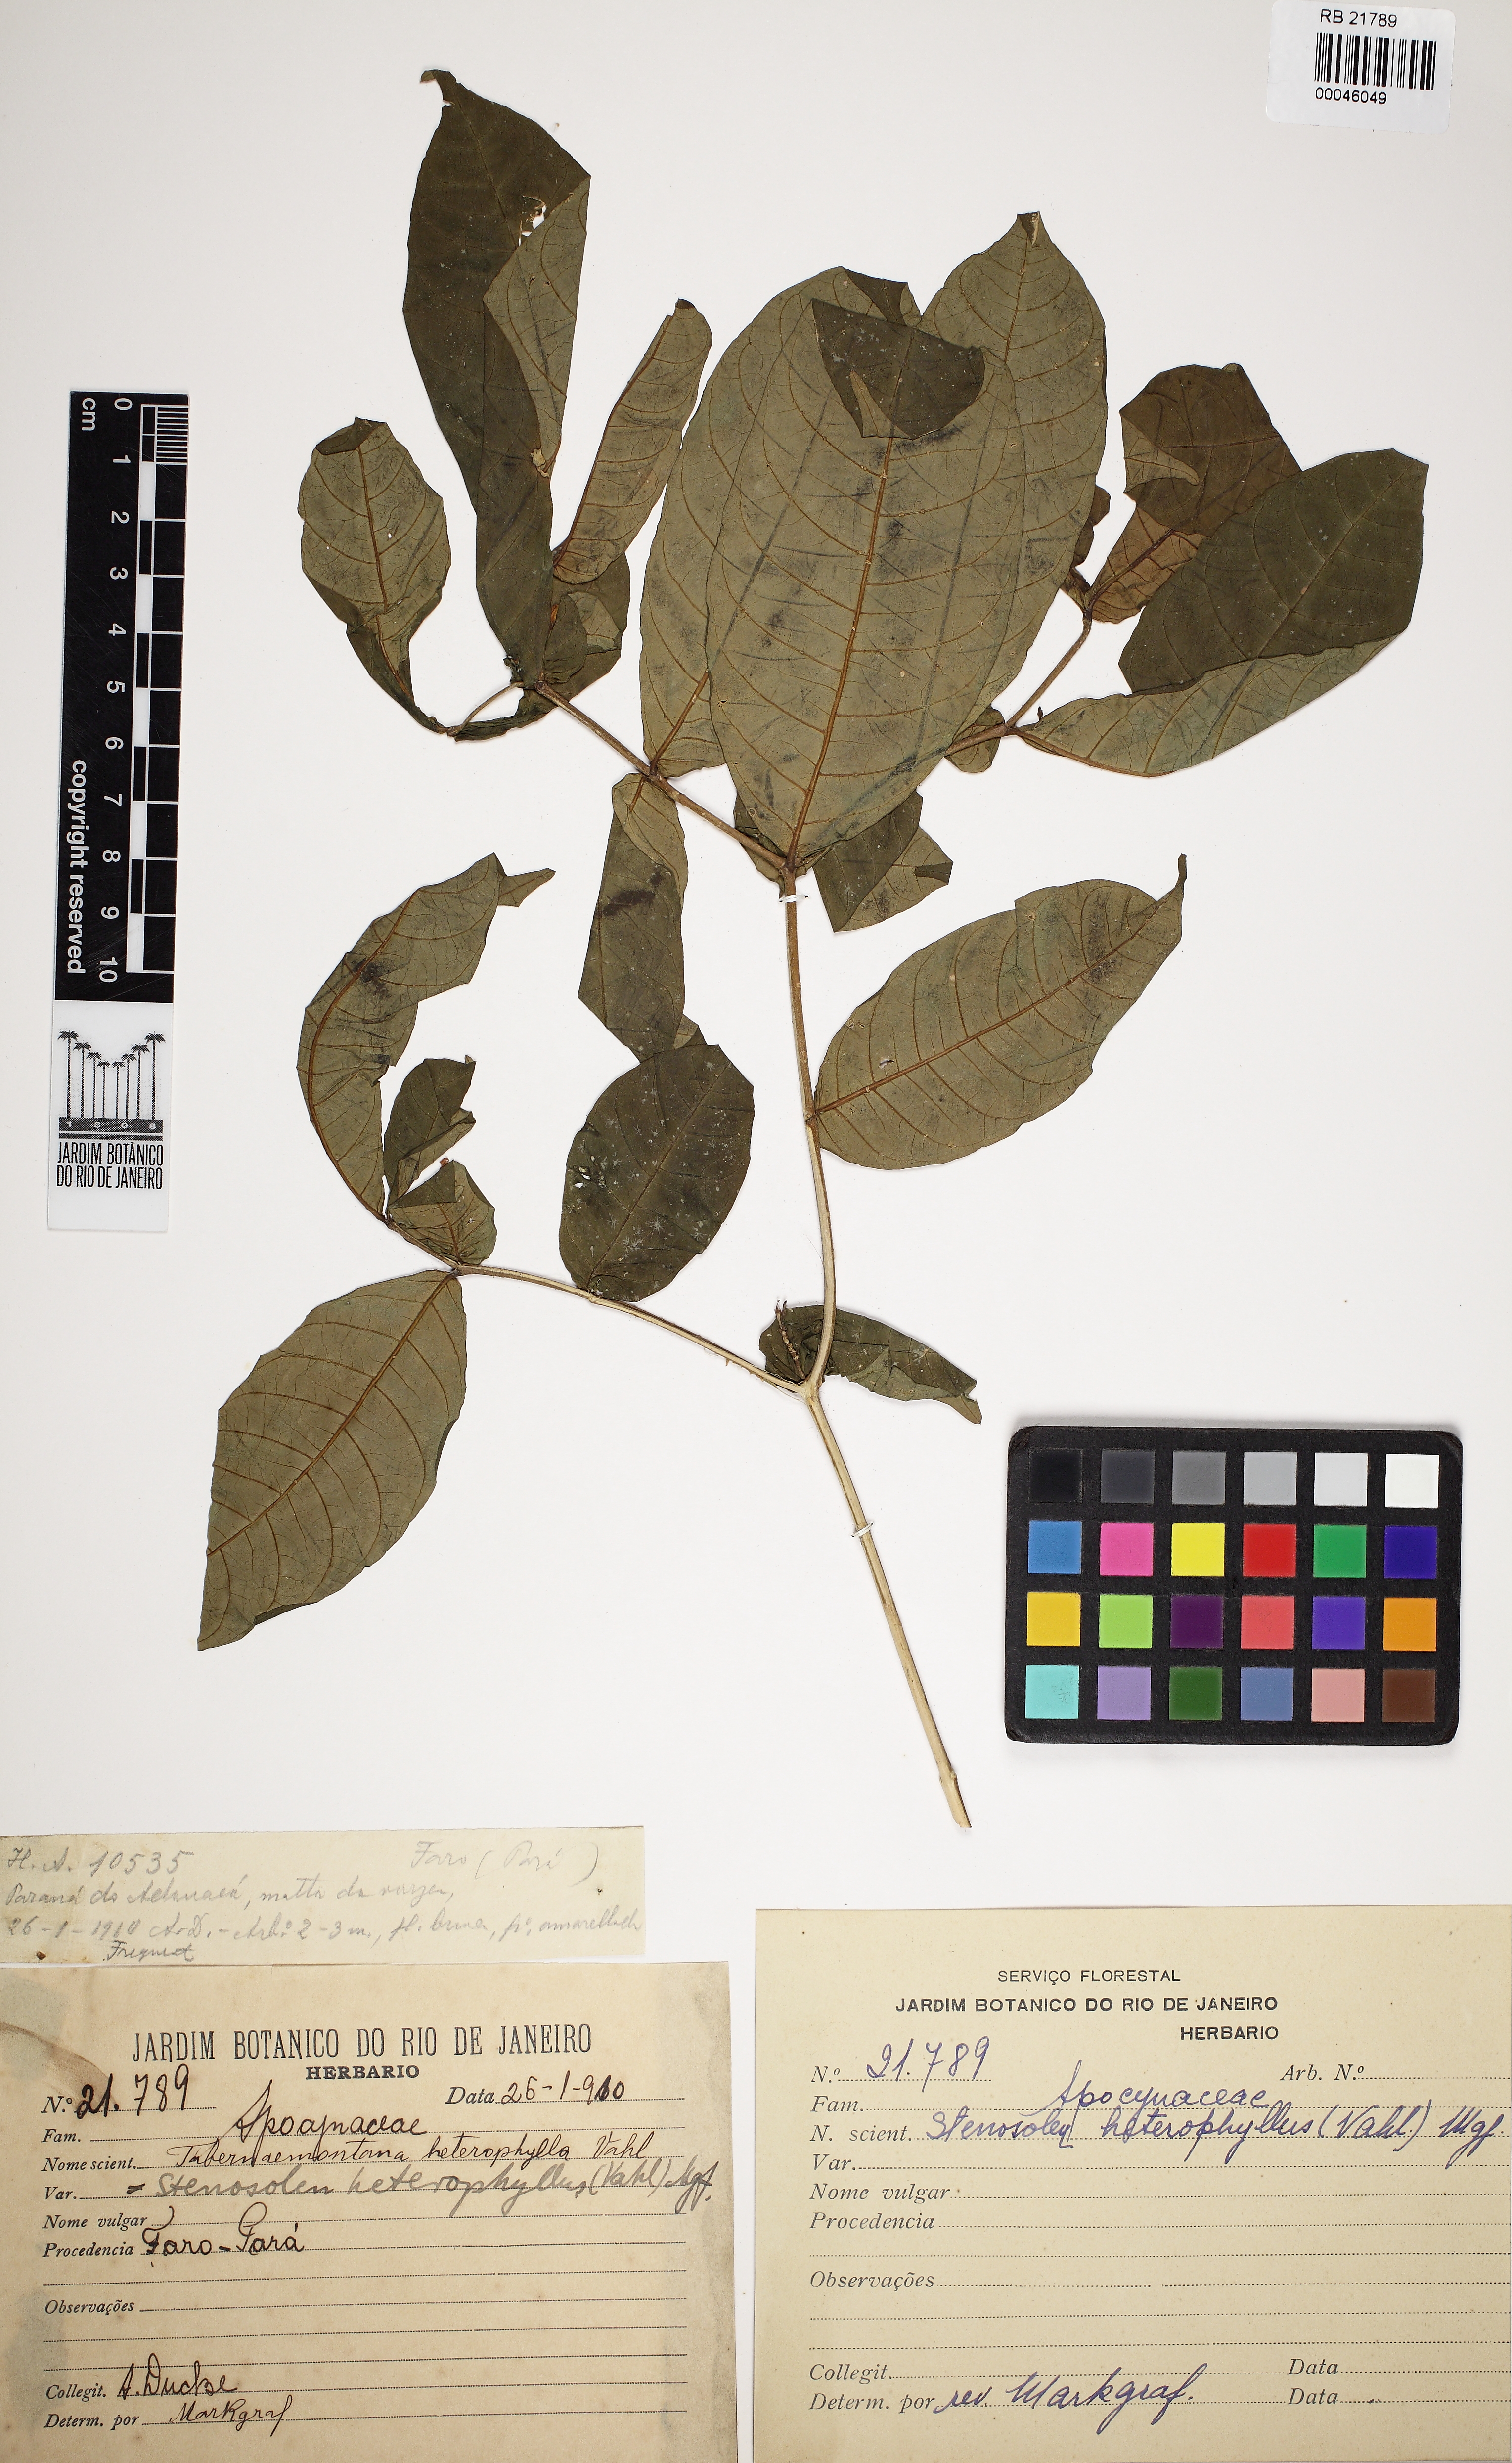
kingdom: Plantae
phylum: Tracheophyta
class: Magnoliopsida
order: Gentianales
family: Apocynaceae
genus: Tabernaemontana
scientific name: Tabernaemontana heterophylla
